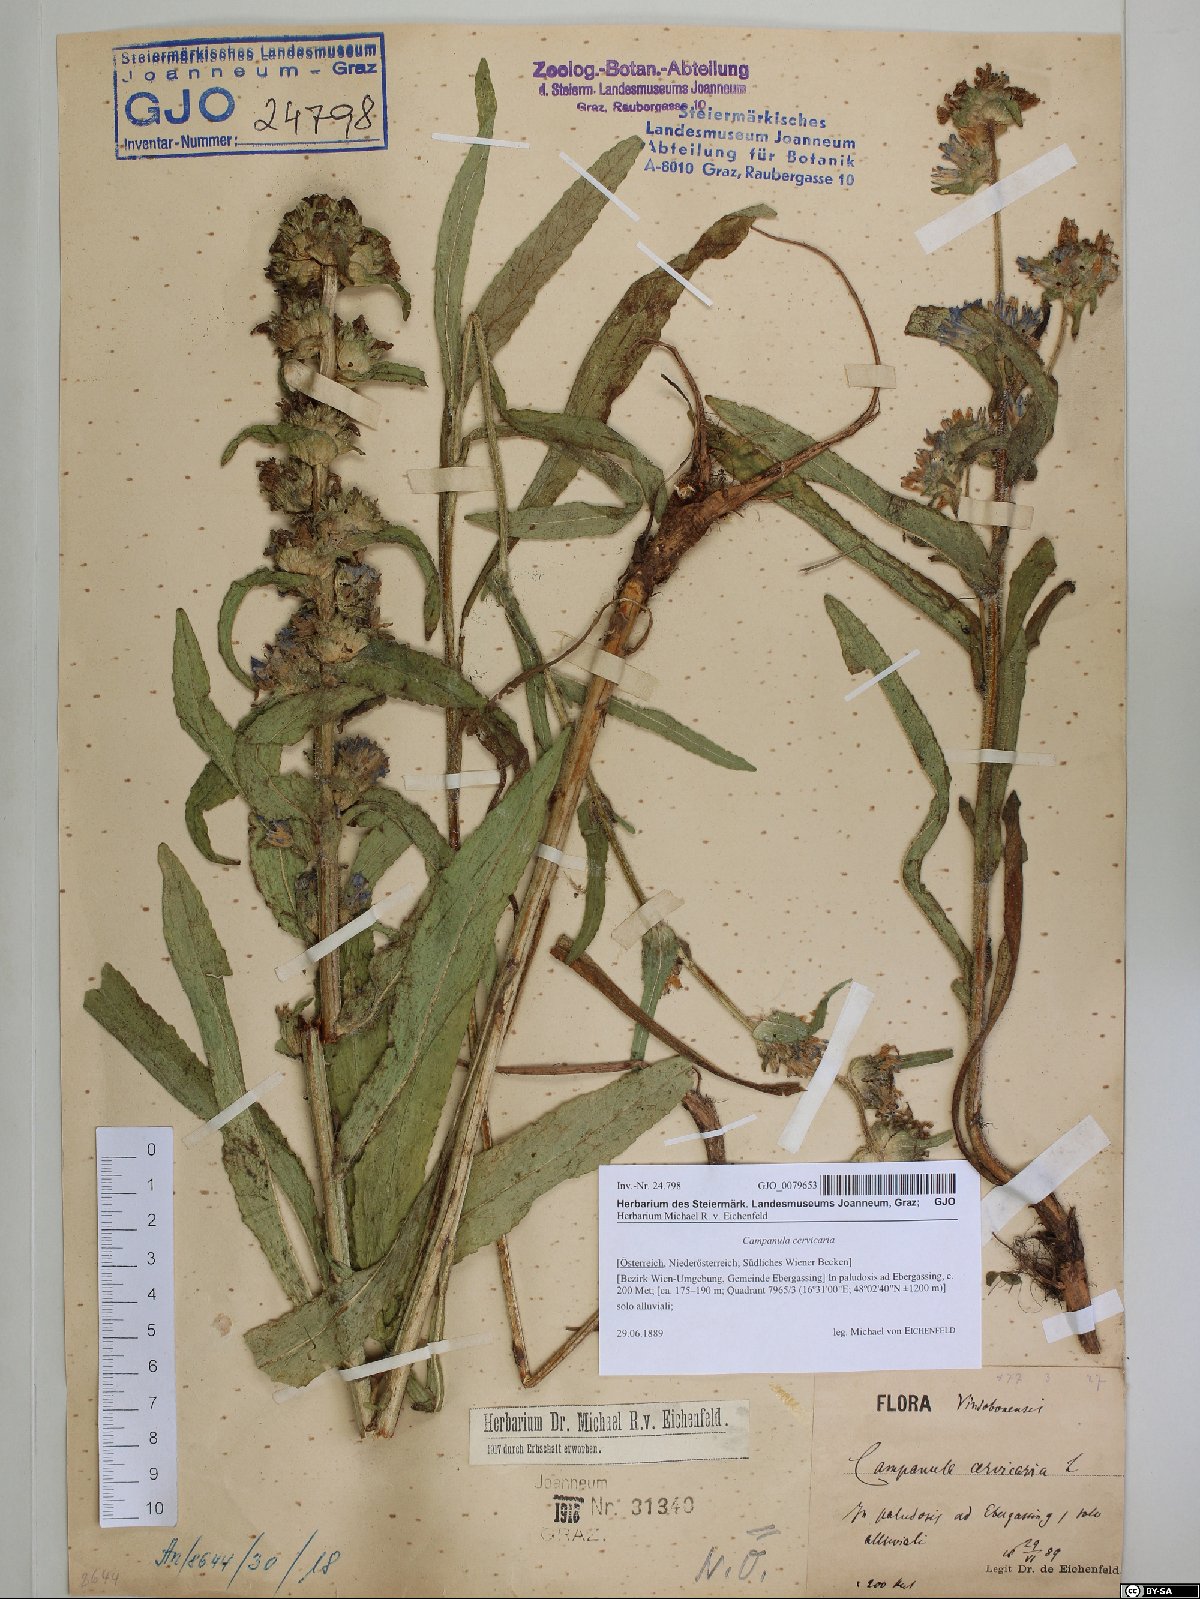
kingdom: Plantae
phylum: Tracheophyta
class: Magnoliopsida
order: Asterales
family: Campanulaceae
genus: Campanula
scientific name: Campanula cervicaria
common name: Bristly bellflower
